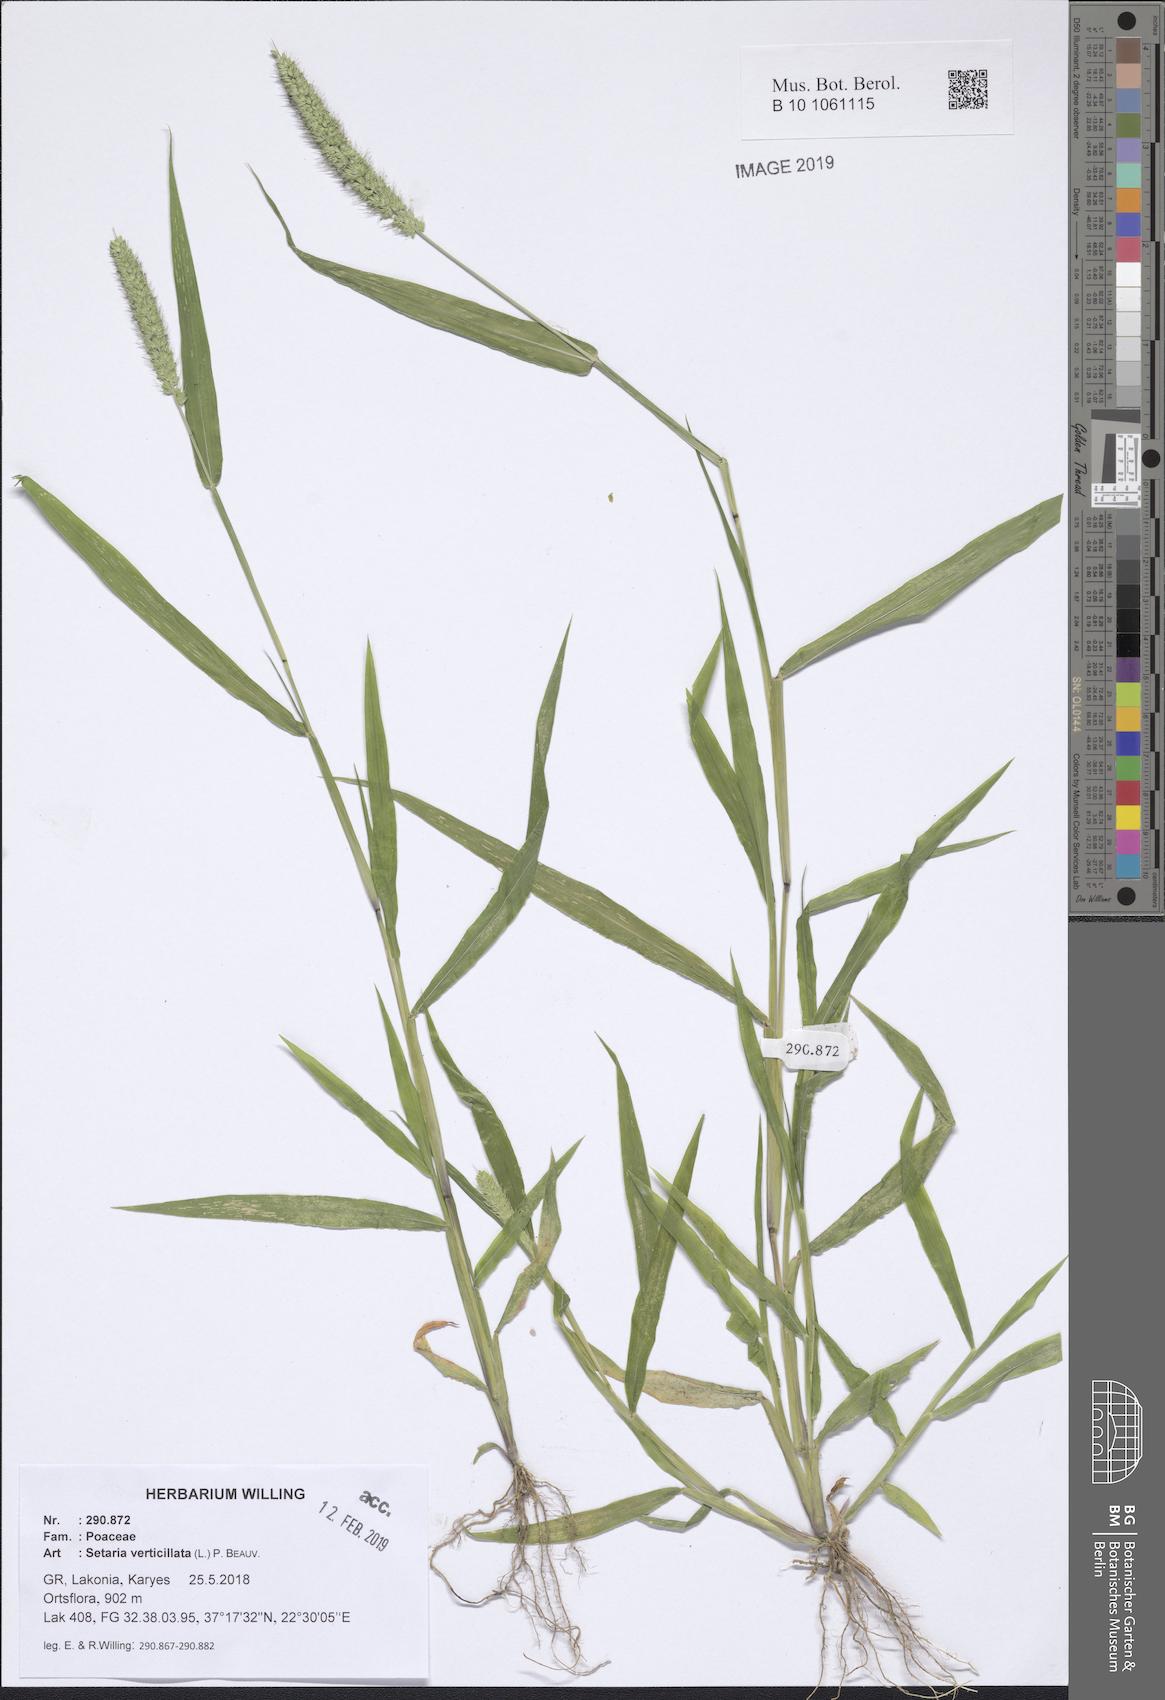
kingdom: Plantae
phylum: Tracheophyta
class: Liliopsida
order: Poales
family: Poaceae
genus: Setaria
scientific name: Setaria verticillata
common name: Hooked bristlegrass
